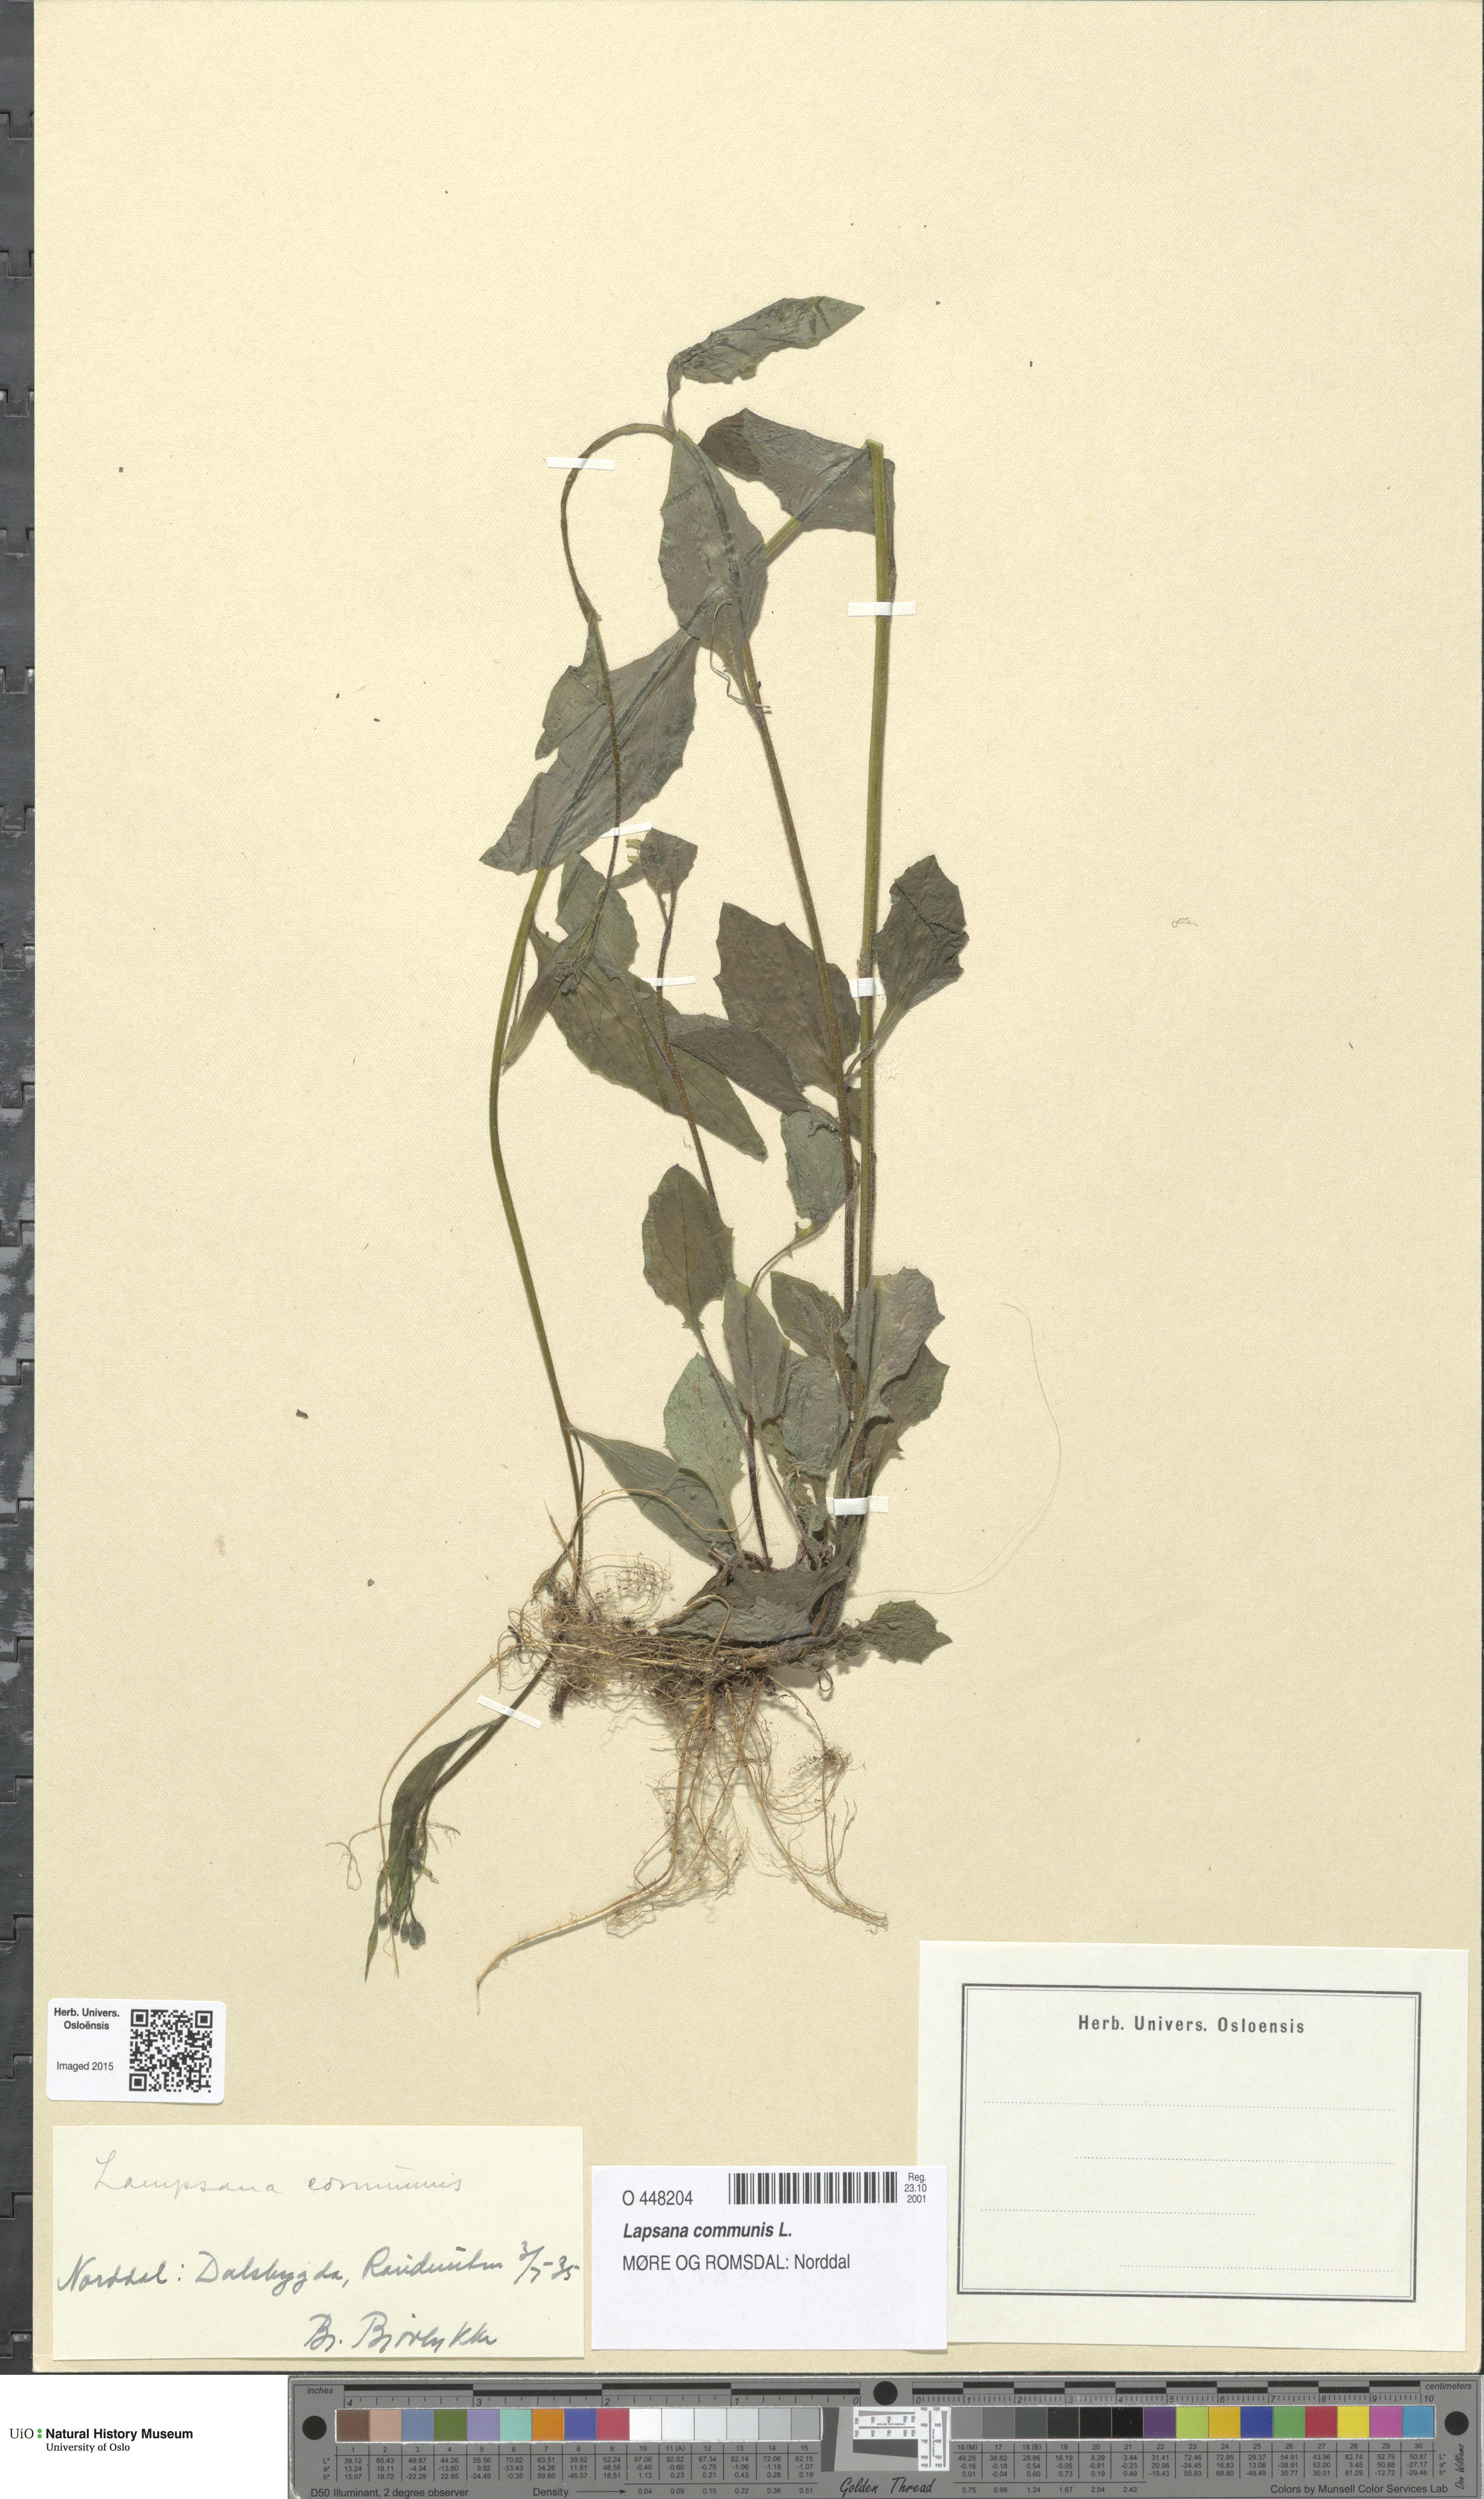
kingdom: Plantae
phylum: Tracheophyta
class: Magnoliopsida
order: Asterales
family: Asteraceae
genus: Lapsana
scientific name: Lapsana communis
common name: Nipplewort
